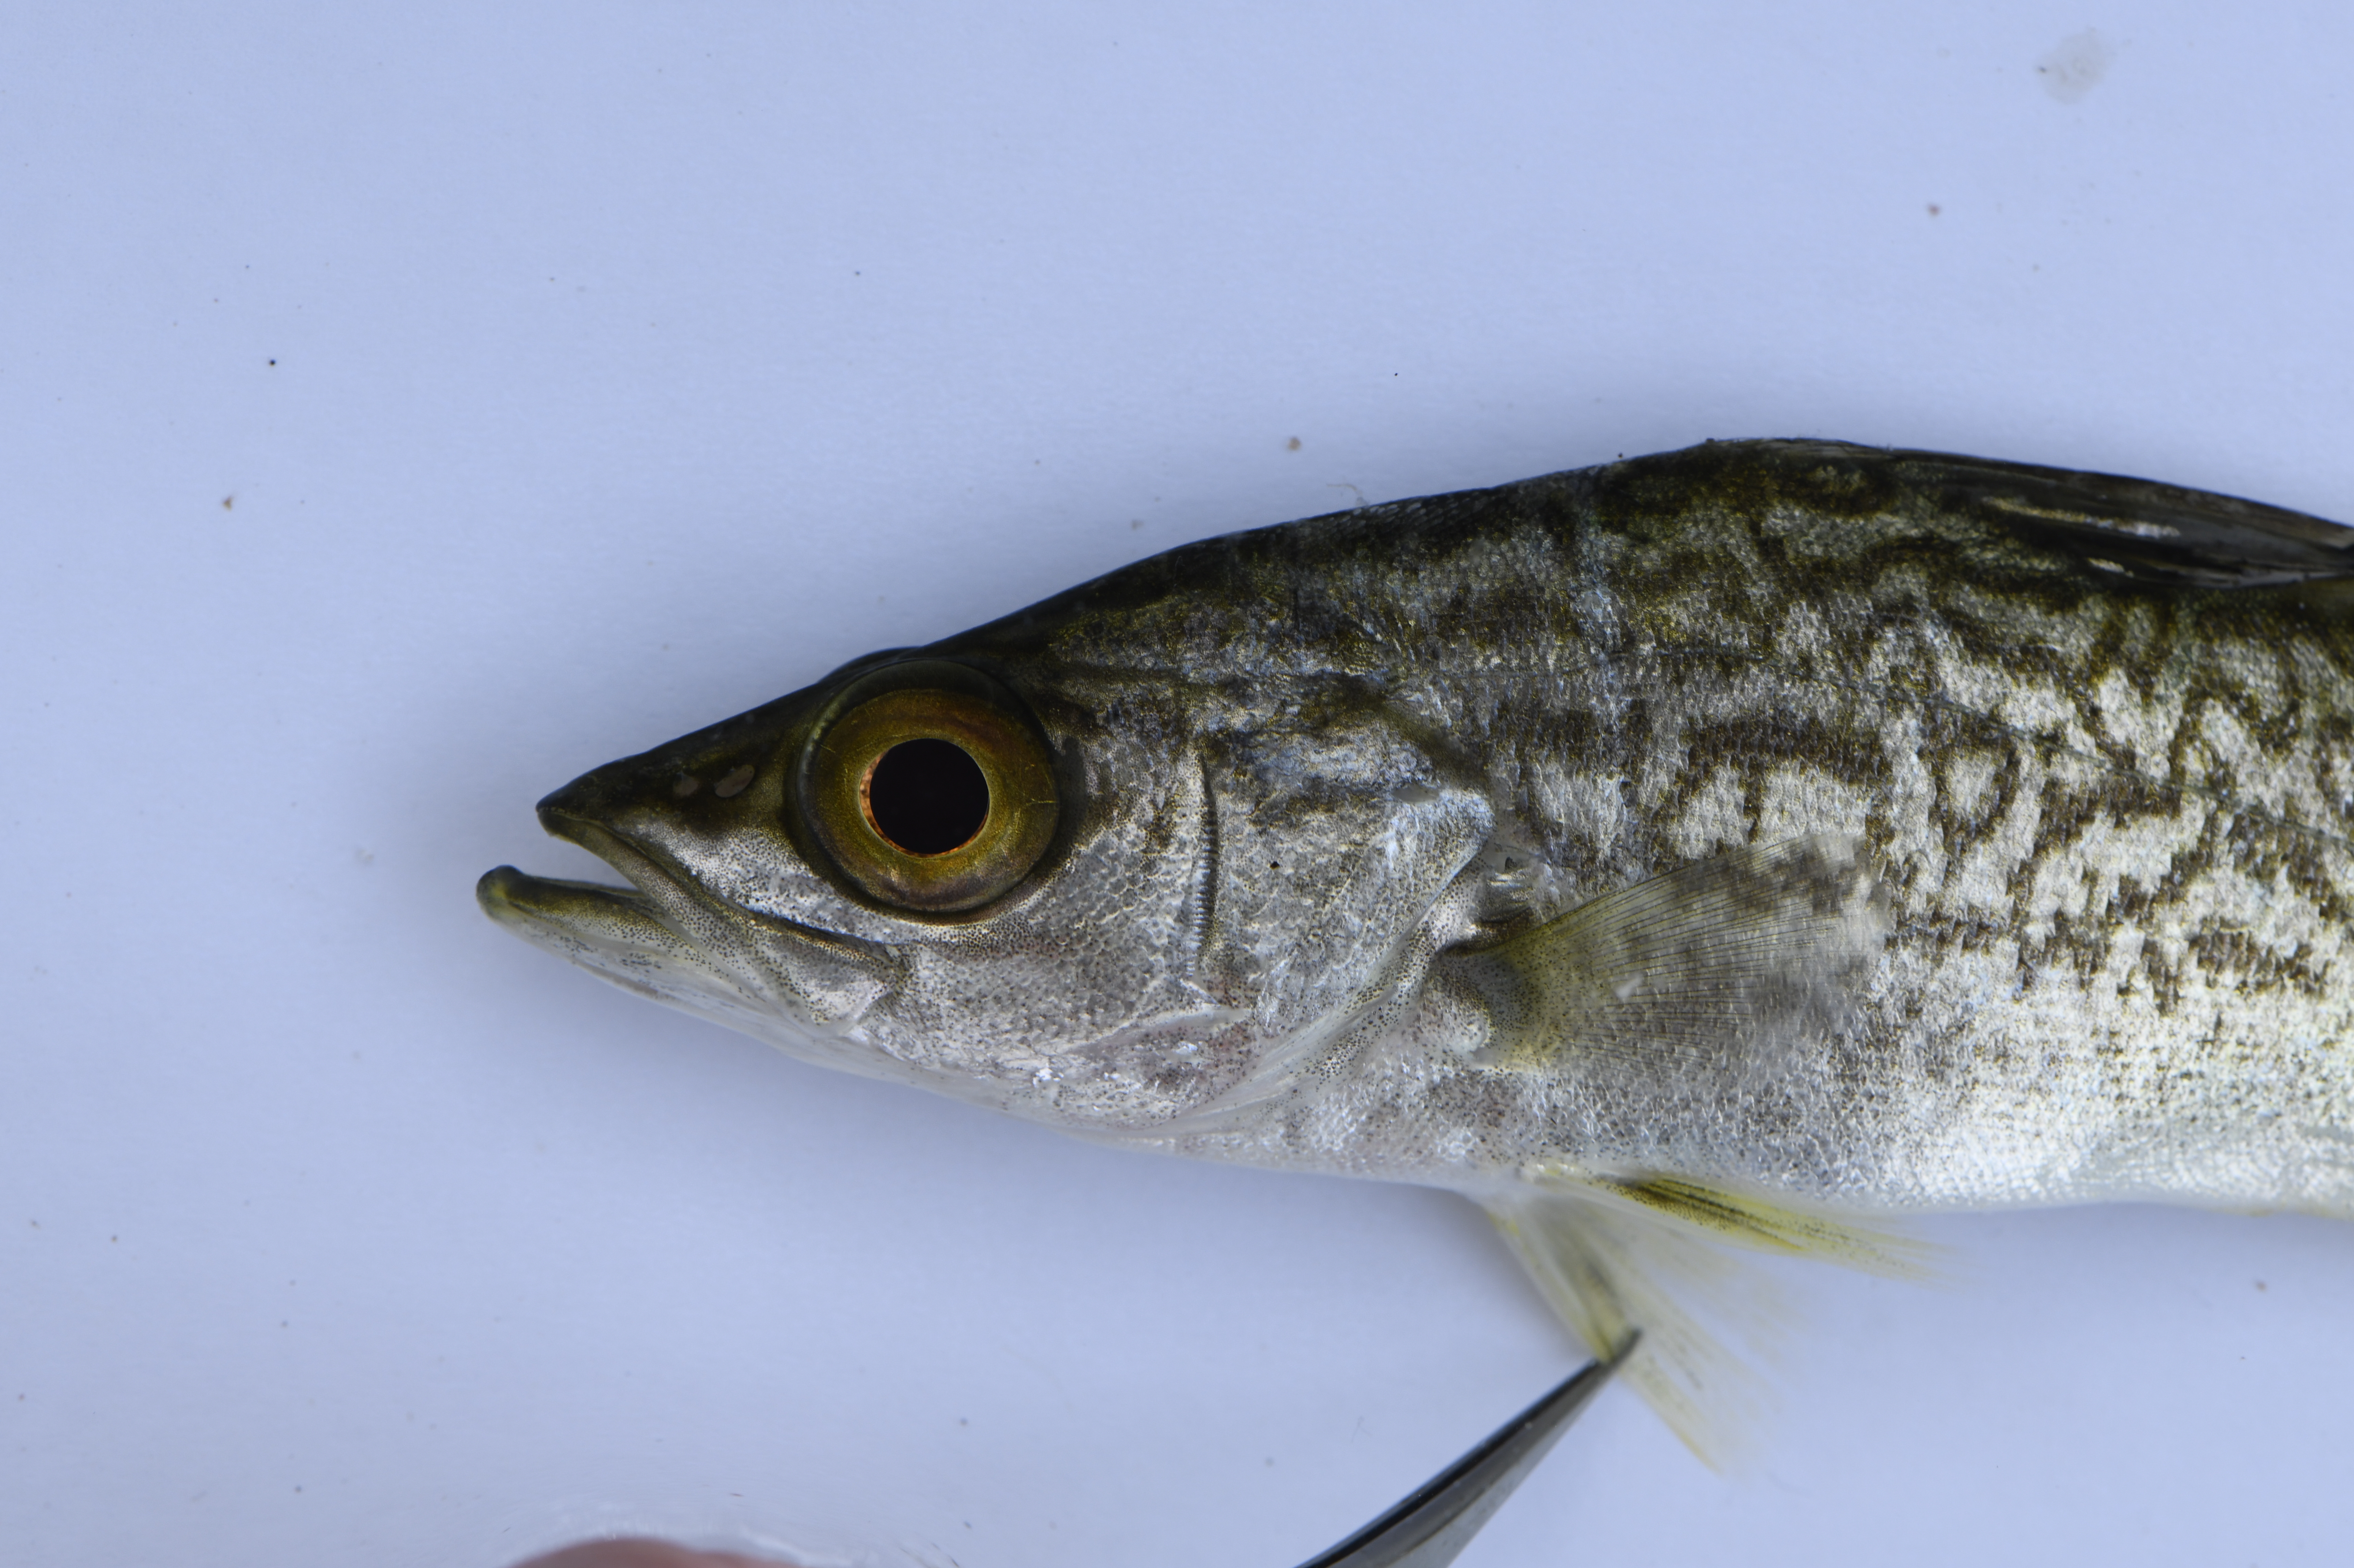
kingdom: Animalia
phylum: Chordata
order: Perciformes
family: Latidae
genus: Lates
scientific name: Lates angustifrons
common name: Tanganyika lates
